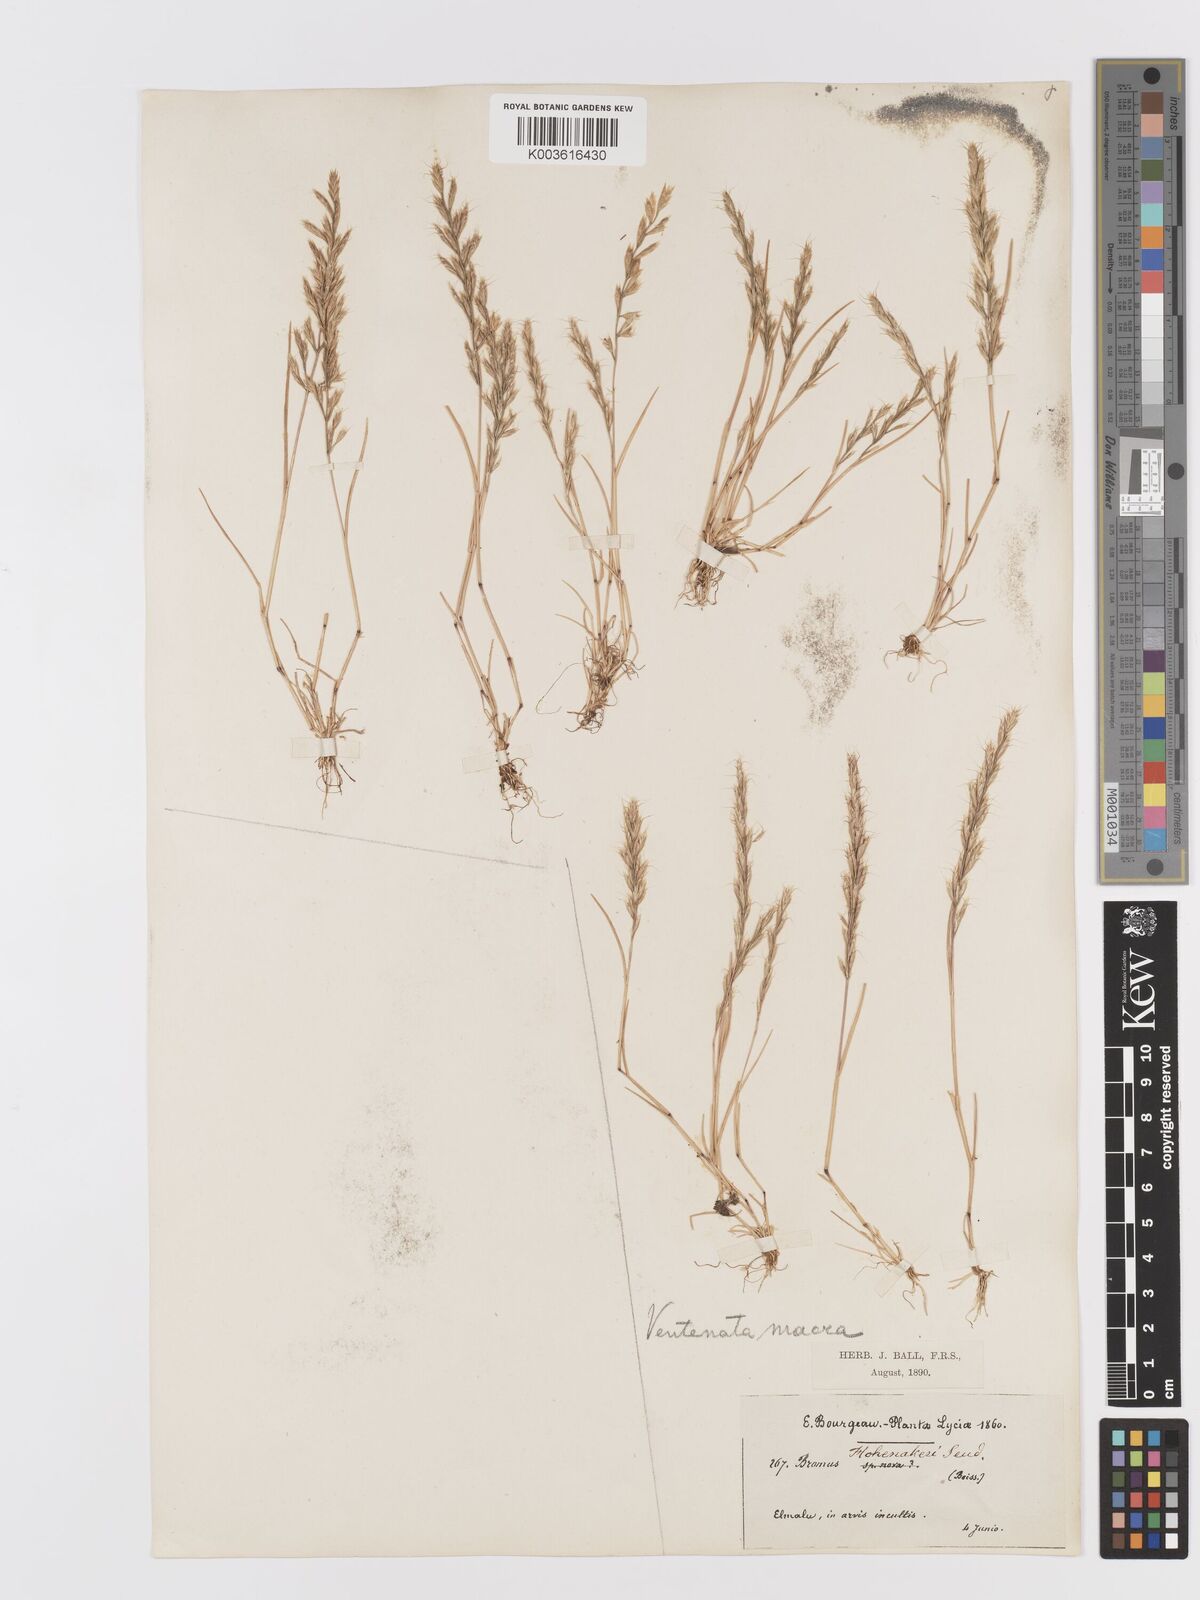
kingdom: Plantae
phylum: Tracheophyta
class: Liliopsida
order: Poales
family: Poaceae
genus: Ventenata
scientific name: Ventenata macra
